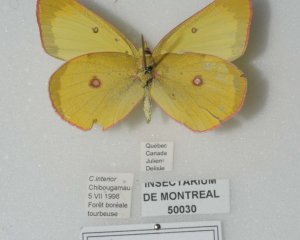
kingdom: Animalia
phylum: Arthropoda
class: Insecta
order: Lepidoptera
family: Pieridae
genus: Colias
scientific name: Colias interior
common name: Pink-edged Sulphur
